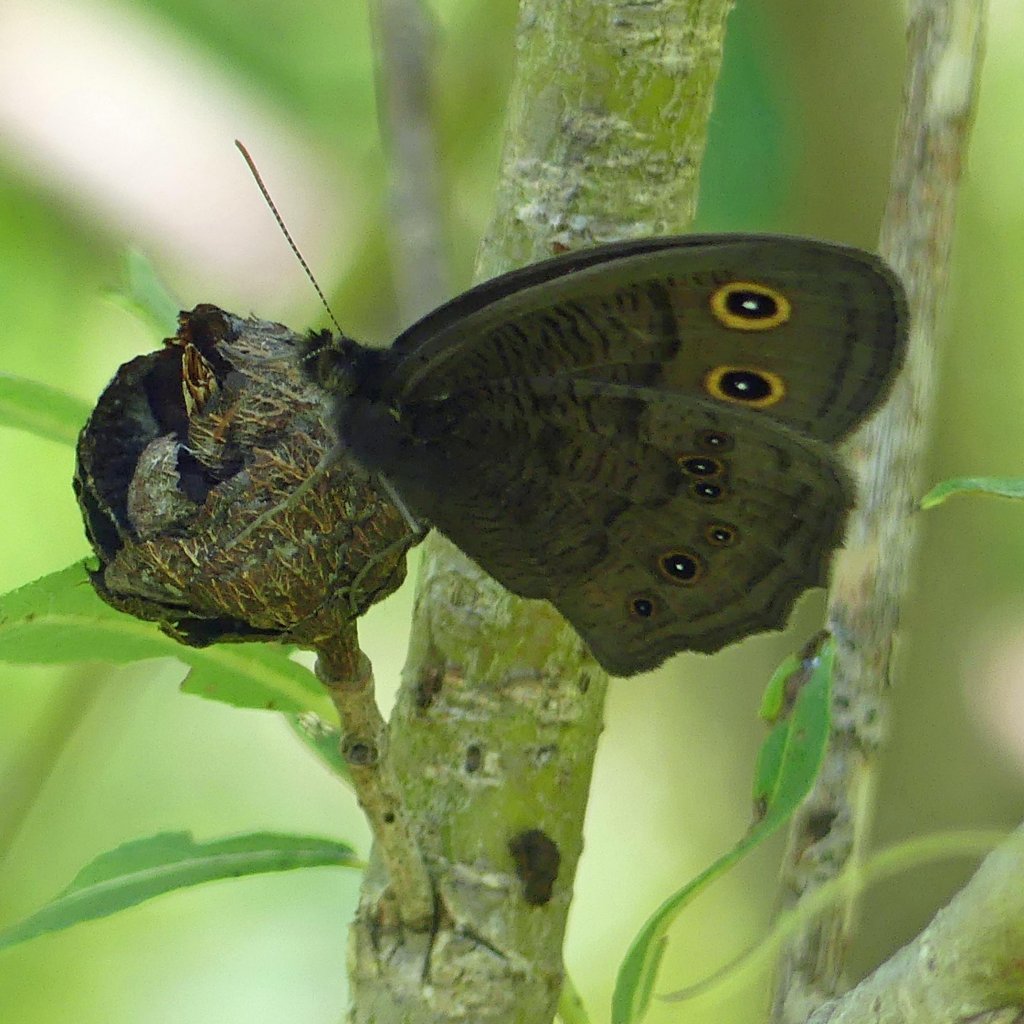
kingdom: Animalia
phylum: Arthropoda
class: Insecta
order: Lepidoptera
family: Nymphalidae
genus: Cercyonis
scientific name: Cercyonis pegala
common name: Common Wood-Nymph
